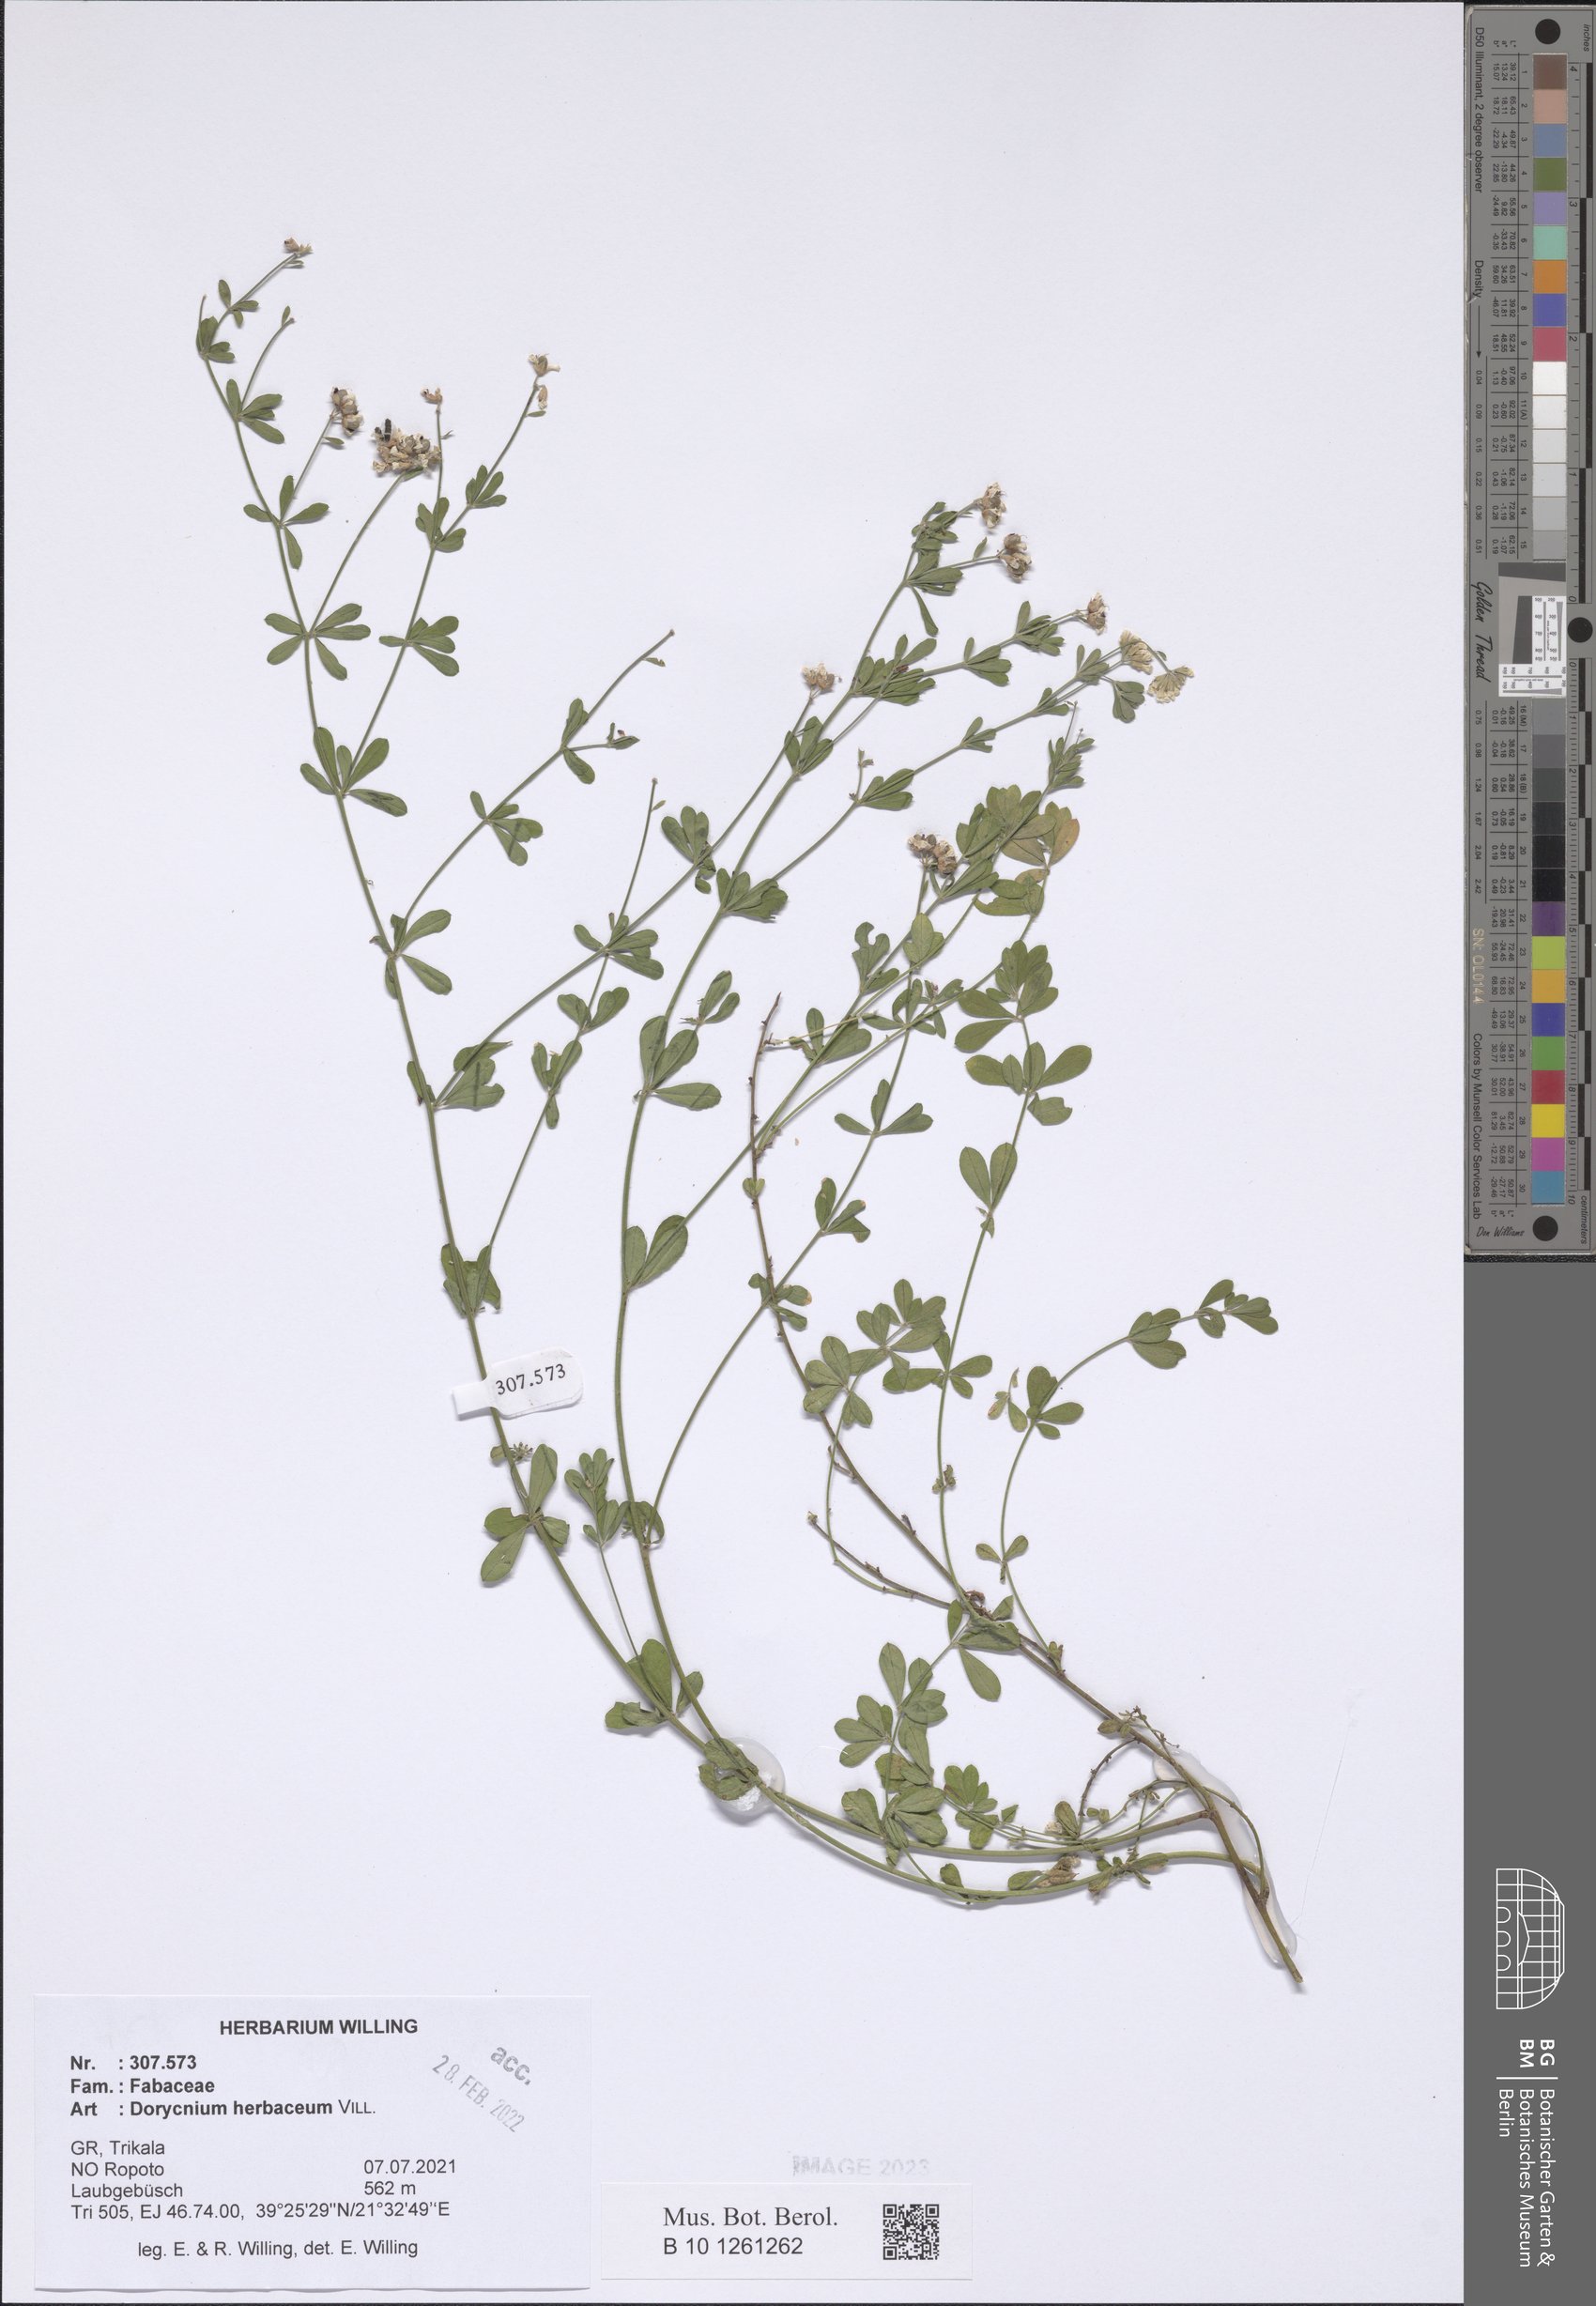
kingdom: Plantae
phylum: Tracheophyta
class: Magnoliopsida
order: Fabales
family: Fabaceae
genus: Lotus
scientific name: Lotus herbaceus
